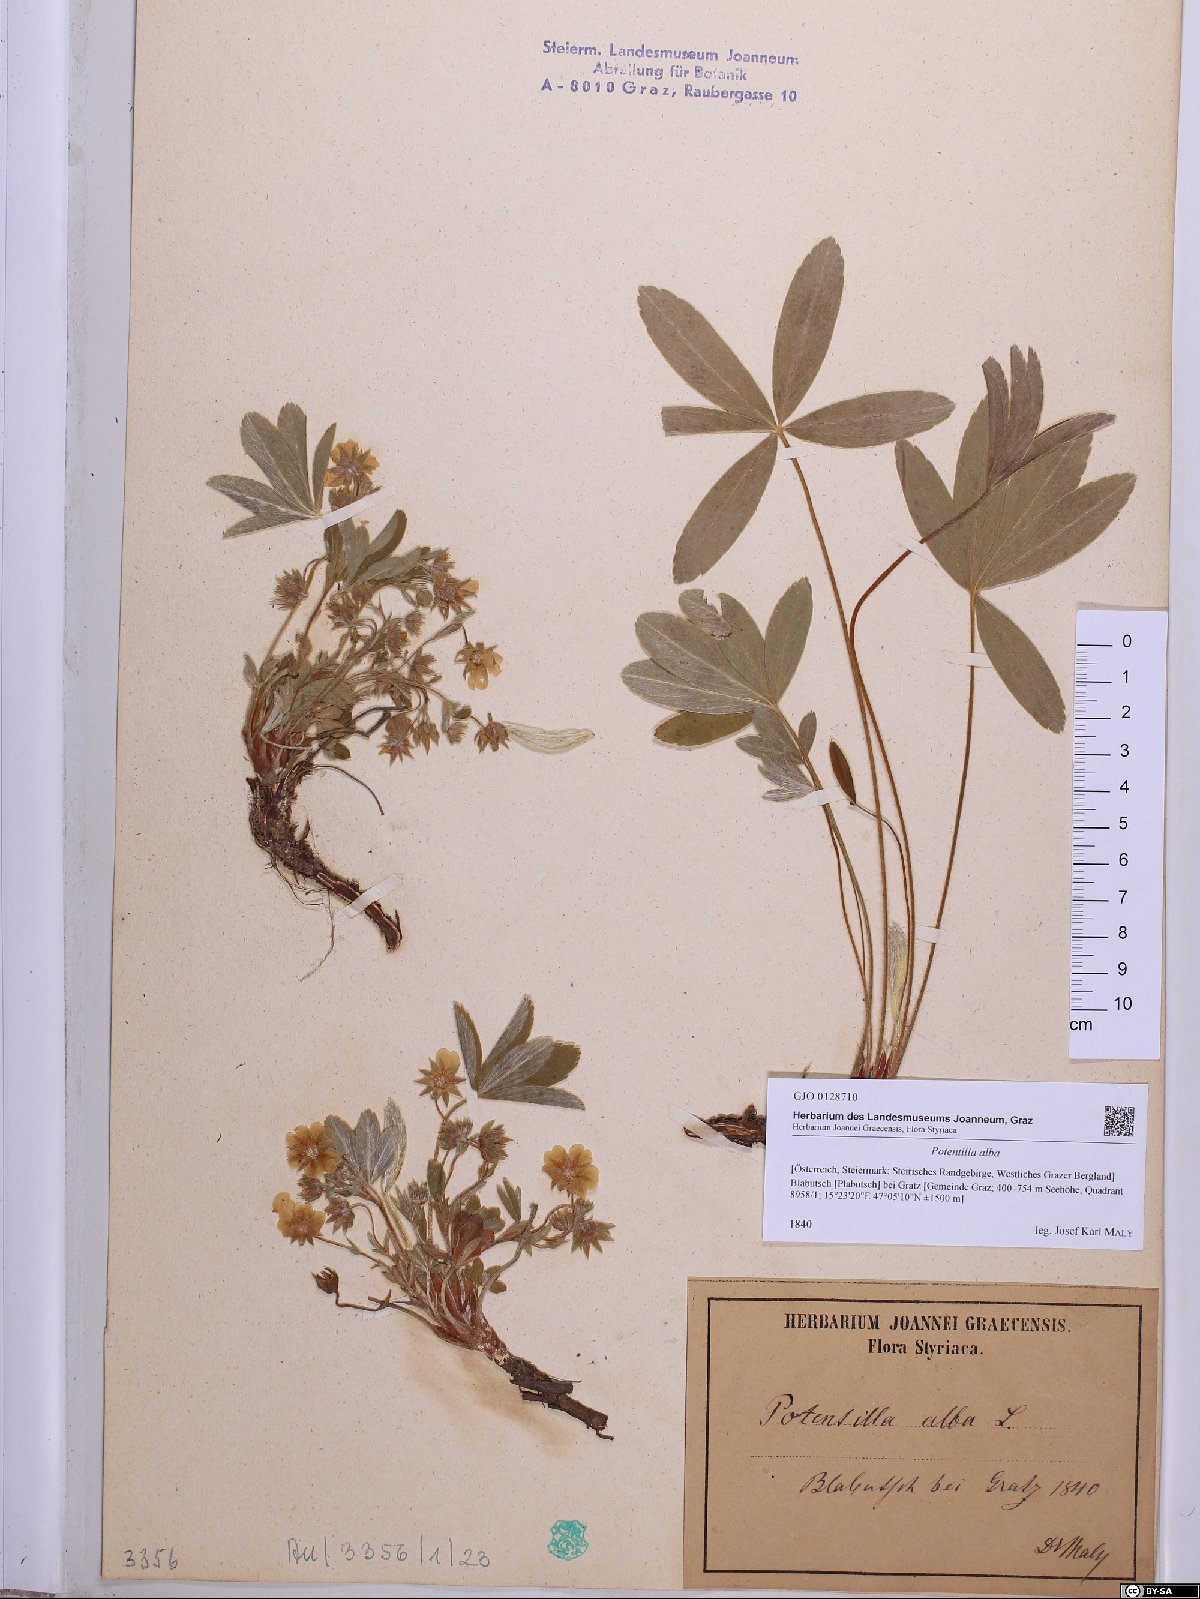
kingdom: Plantae
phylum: Tracheophyta
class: Magnoliopsida
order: Rosales
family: Rosaceae
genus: Potentilla
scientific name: Potentilla alba
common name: White cinquefoil
